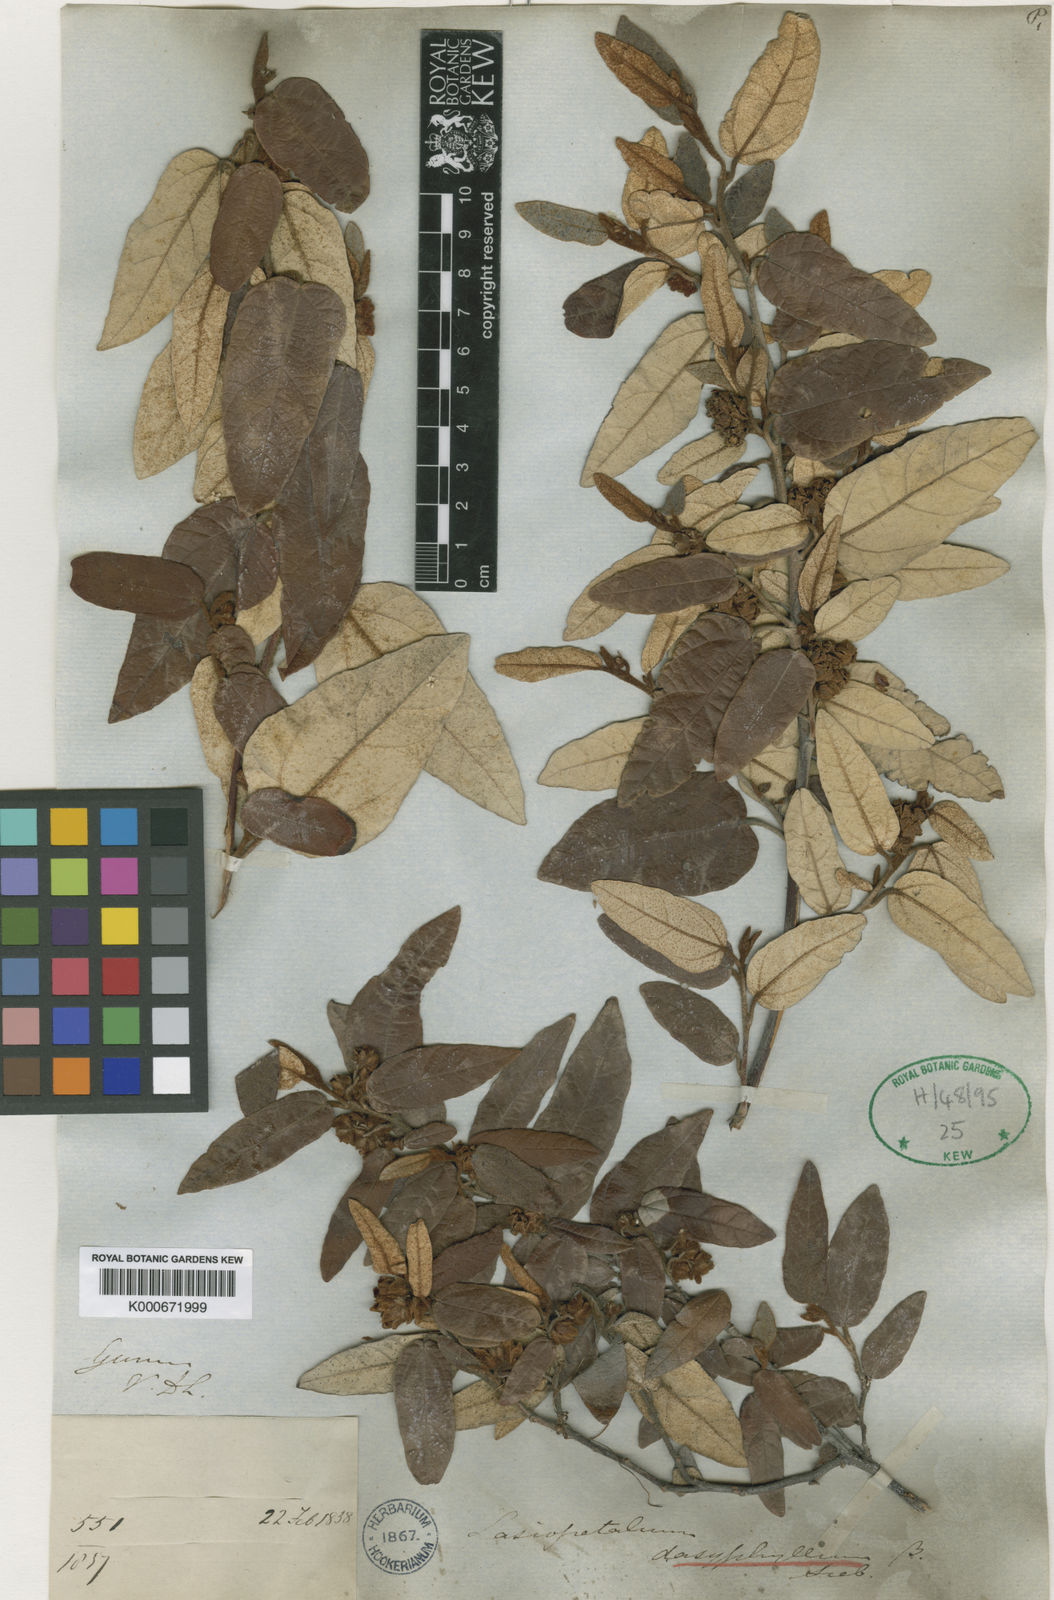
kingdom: Plantae
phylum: Tracheophyta
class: Magnoliopsida
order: Malvales
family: Malvaceae
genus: Lasiopetalum
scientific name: Lasiopetalum macrophyllum
